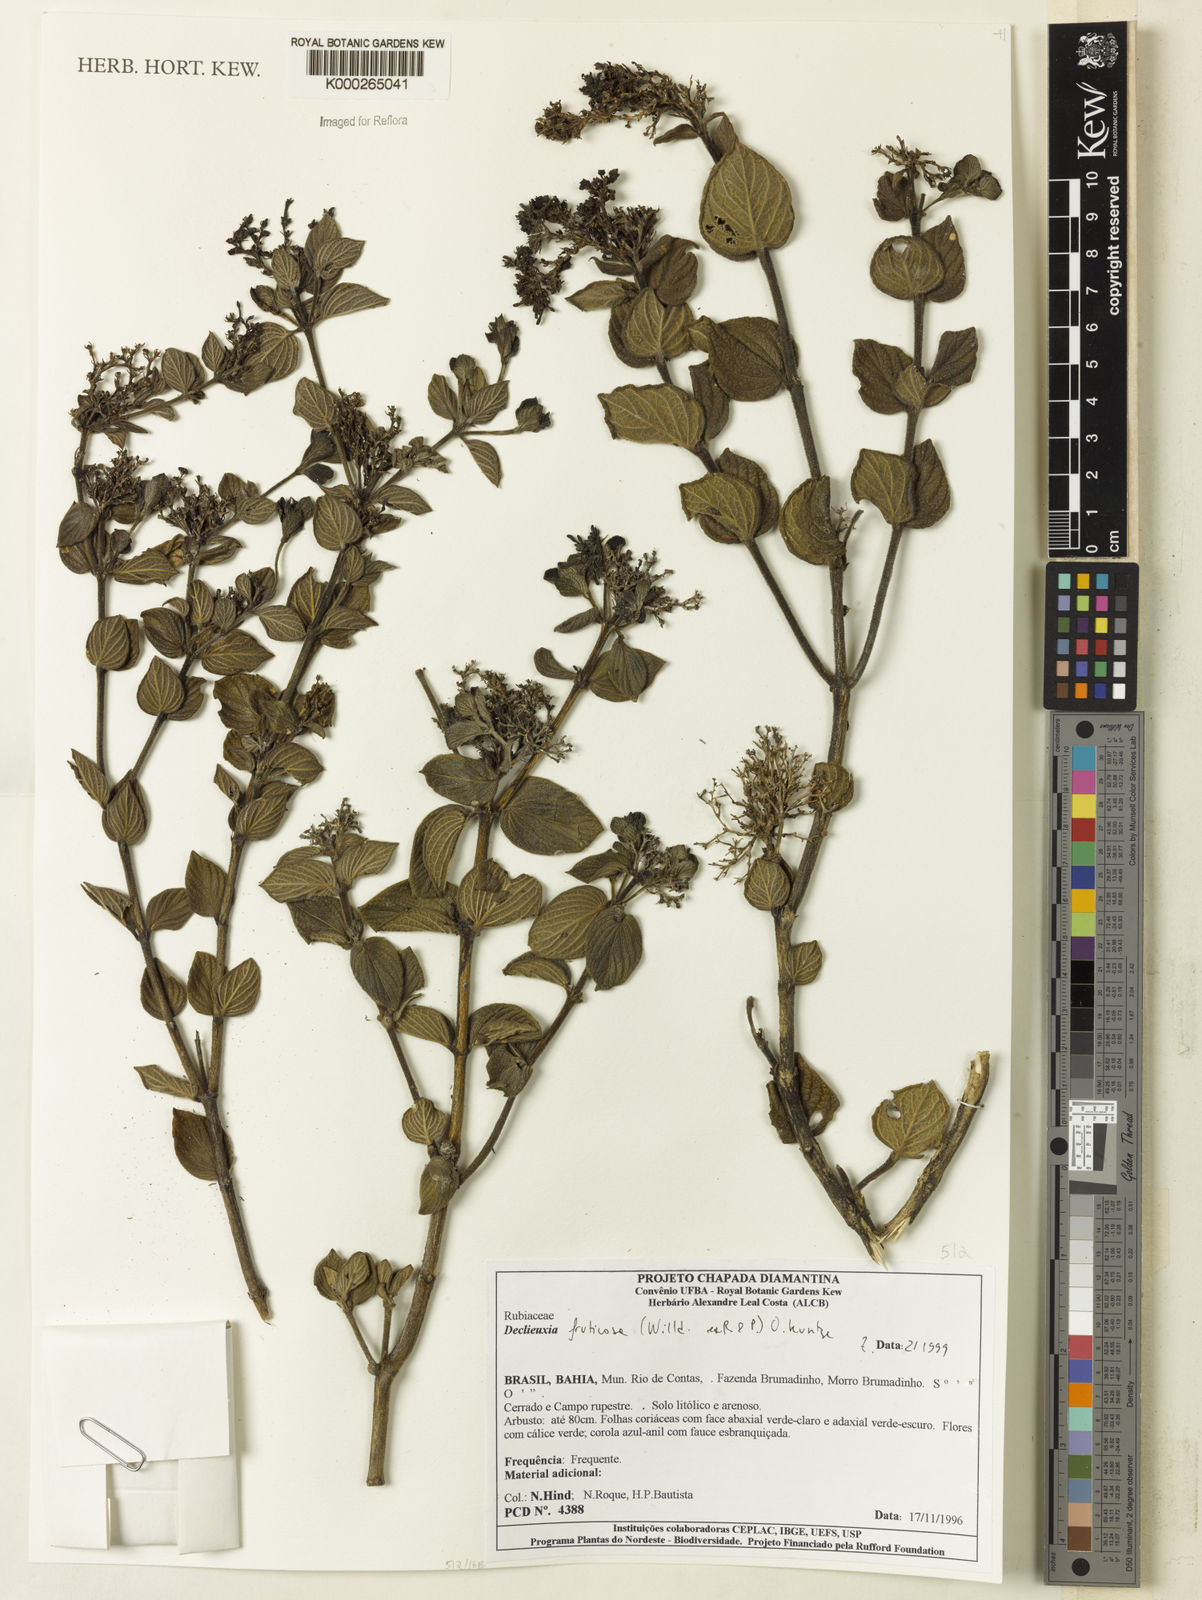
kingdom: Plantae
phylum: Tracheophyta
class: Magnoliopsida
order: Gentianales
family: Rubiaceae
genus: Declieuxia
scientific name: Declieuxia fruticosa
